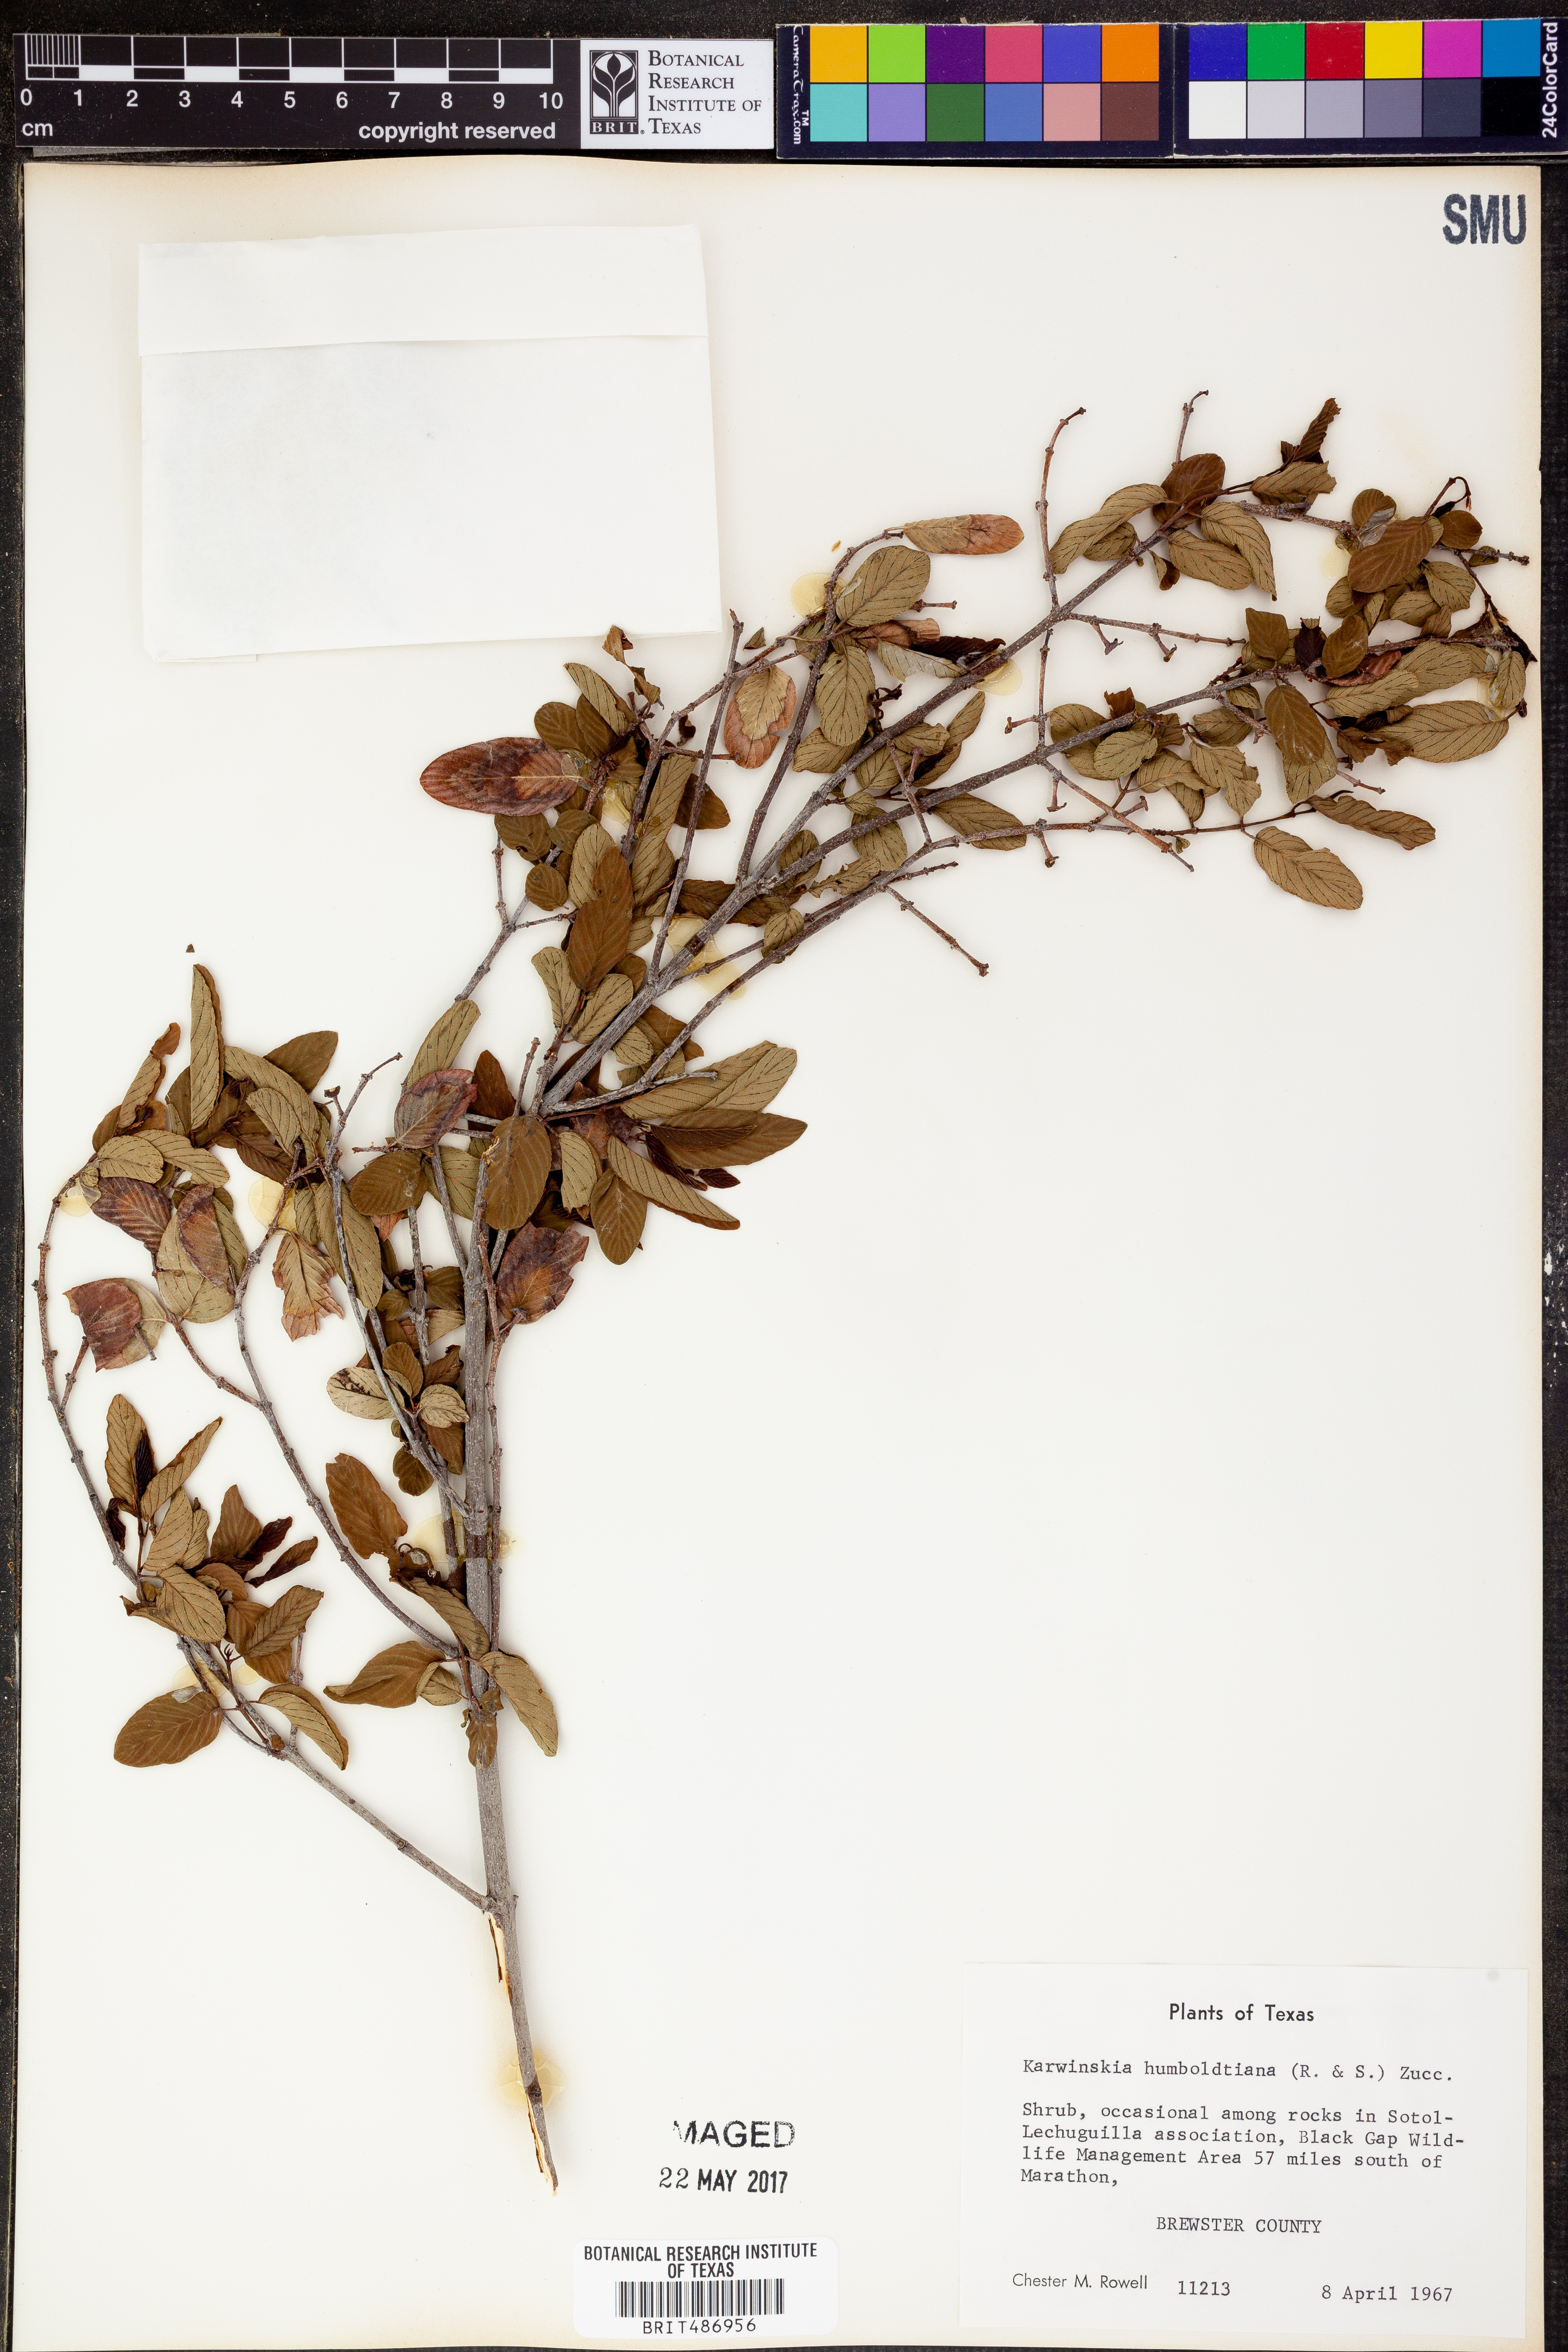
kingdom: Plantae
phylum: Tracheophyta
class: Magnoliopsida
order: Rosales
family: Rhamnaceae
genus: Karwinskia
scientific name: Karwinskia humboldtiana
